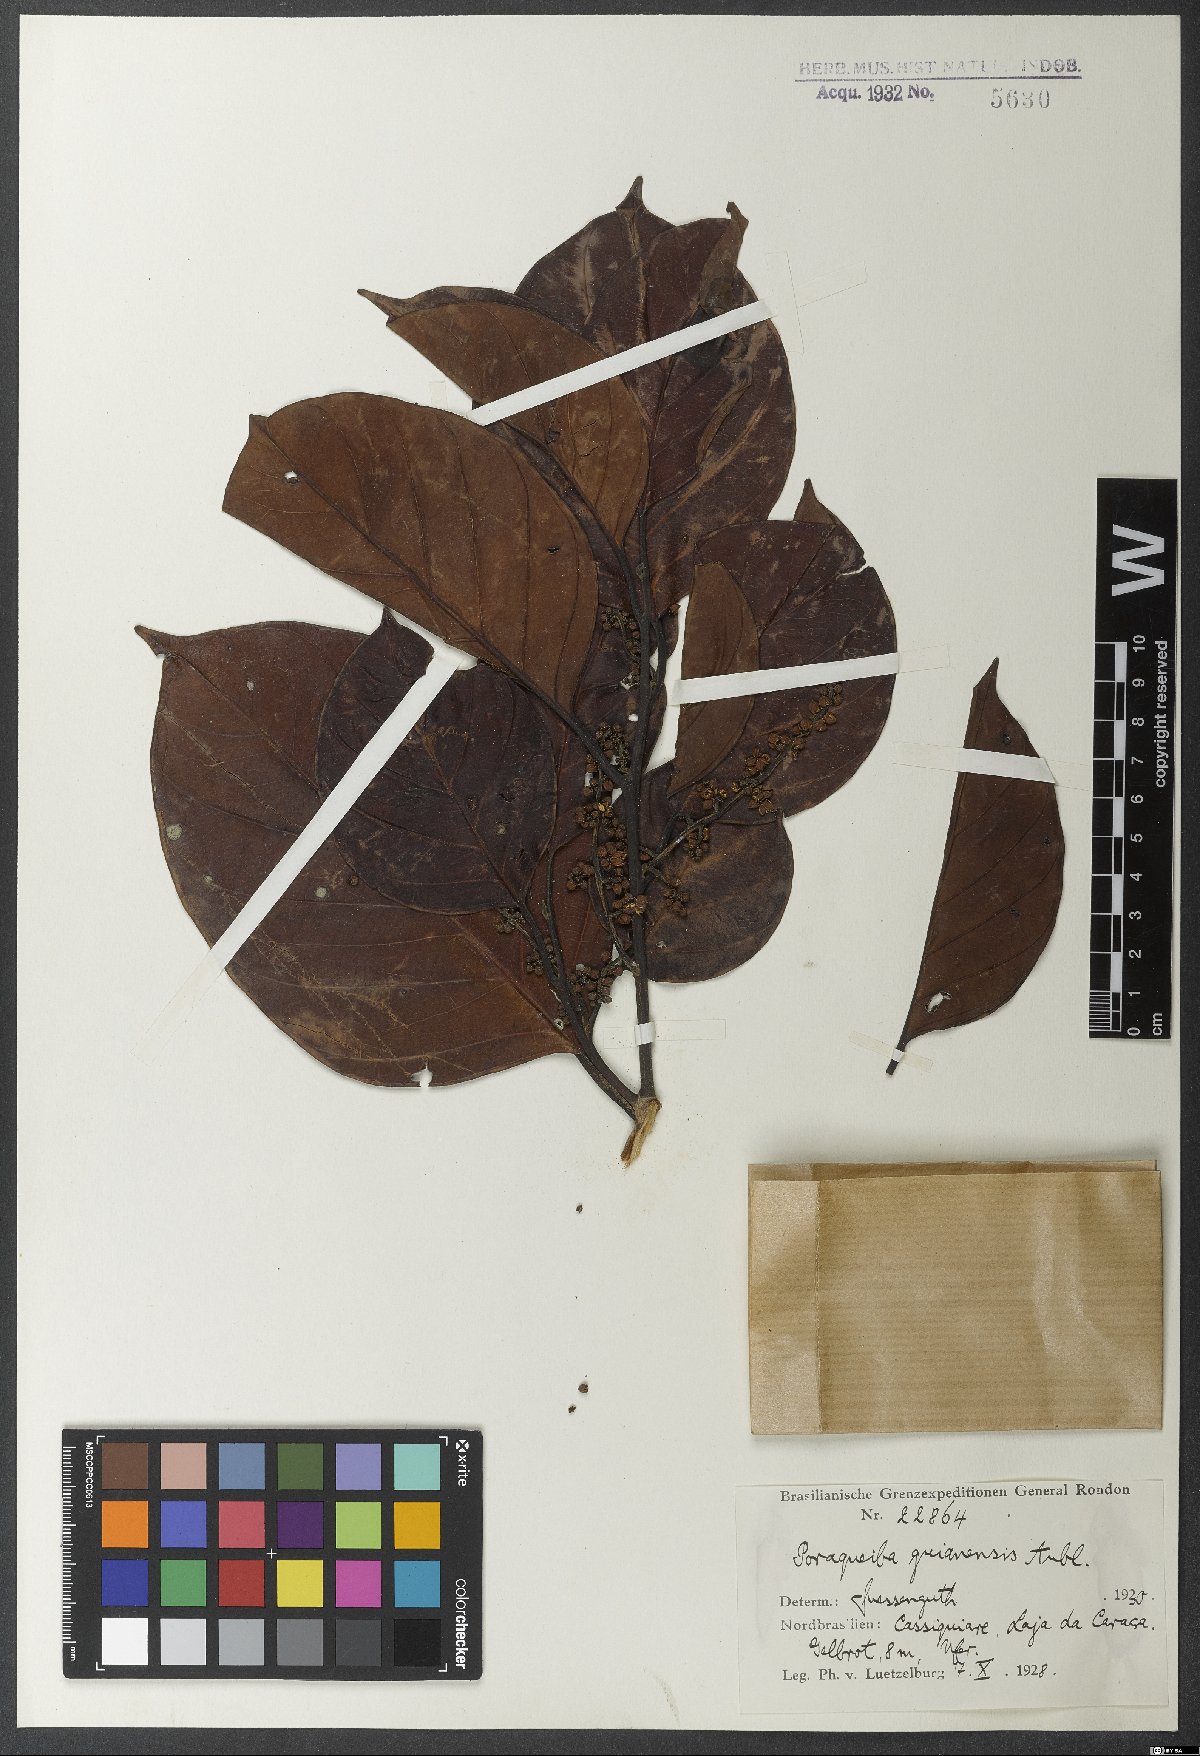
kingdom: Plantae
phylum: Tracheophyta
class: Magnoliopsida
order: Metteniusales
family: Metteniusaceae
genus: Poraqueiba
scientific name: Poraqueiba guianensis
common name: Umari-sauvage
